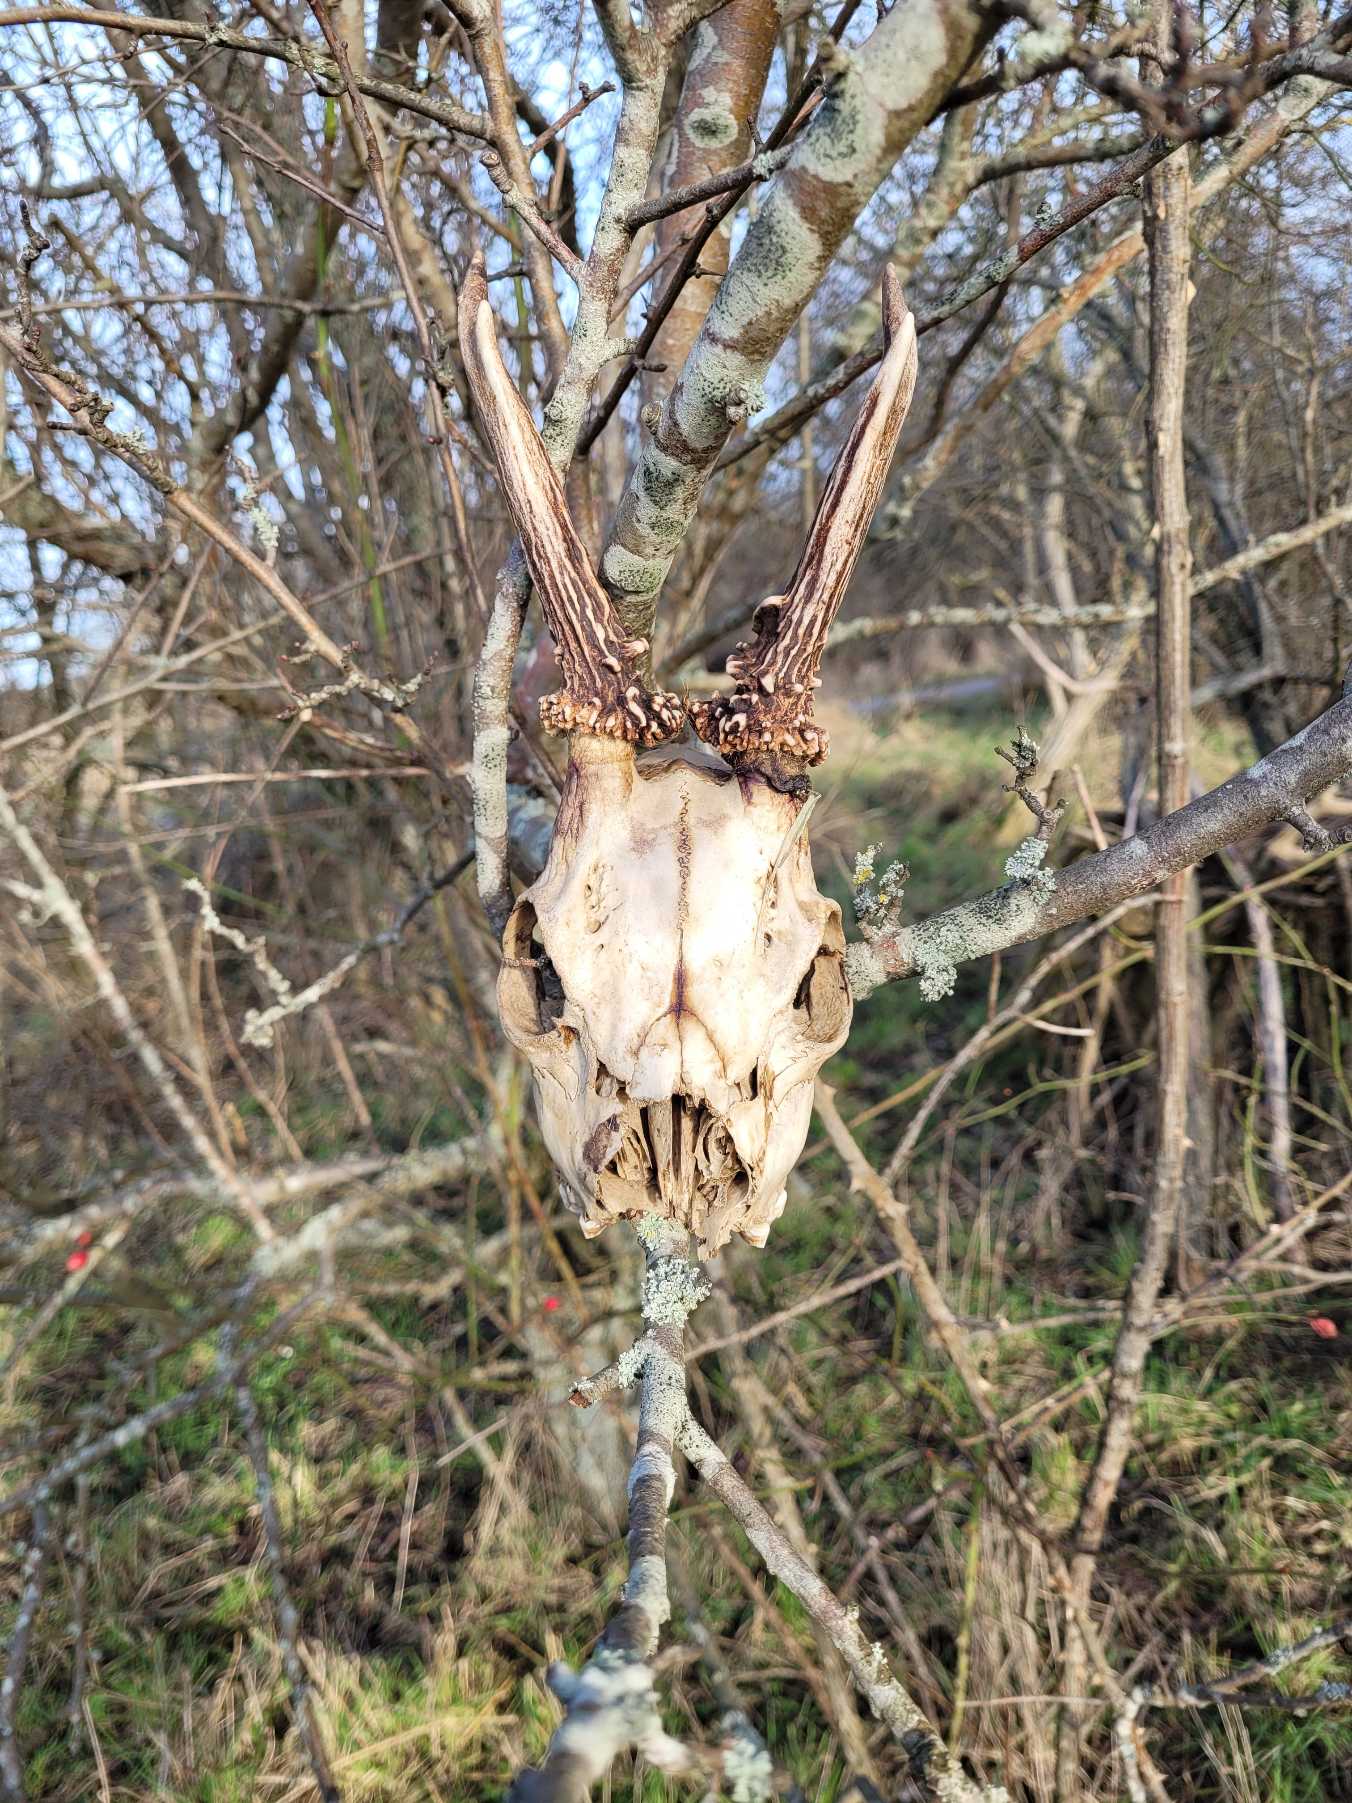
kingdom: Animalia
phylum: Chordata
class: Mammalia
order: Artiodactyla
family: Cervidae
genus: Capreolus
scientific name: Capreolus capreolus
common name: Rådyr
